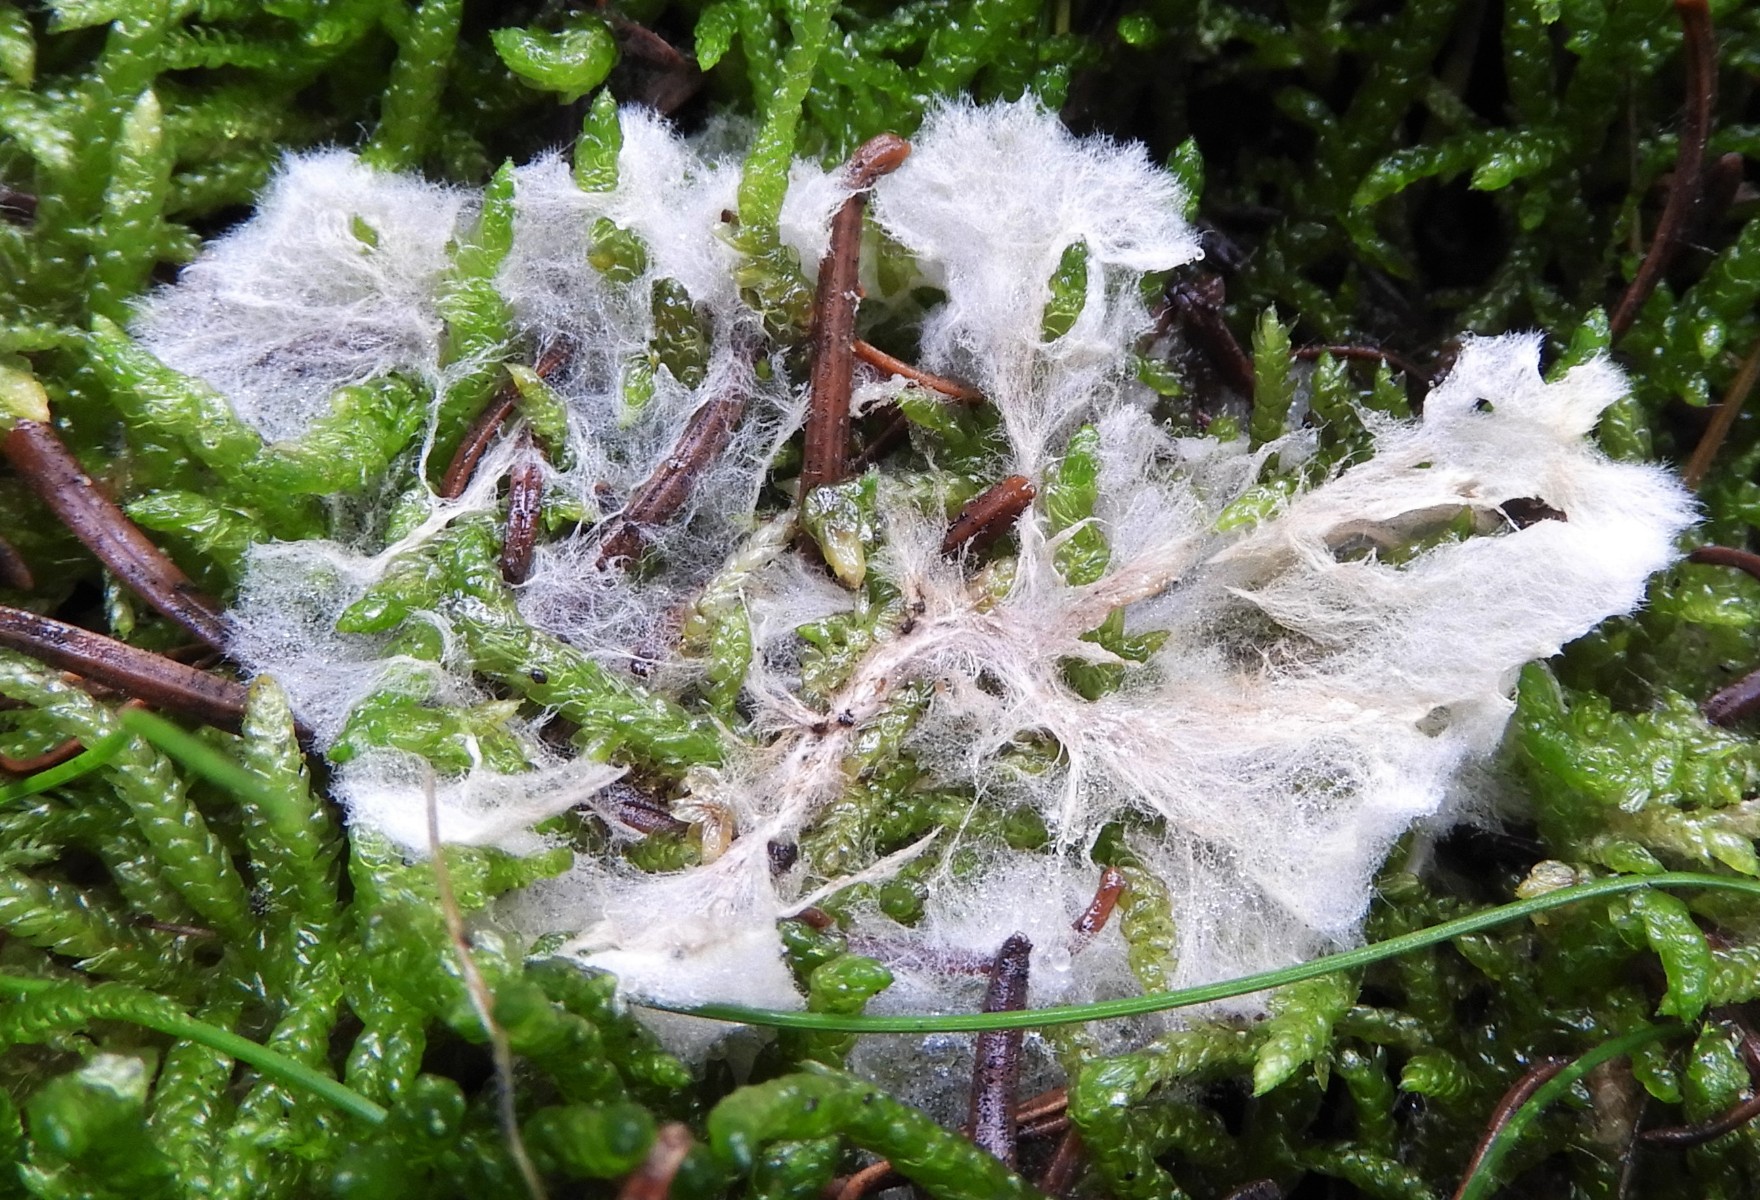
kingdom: Fungi
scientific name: Fungi
